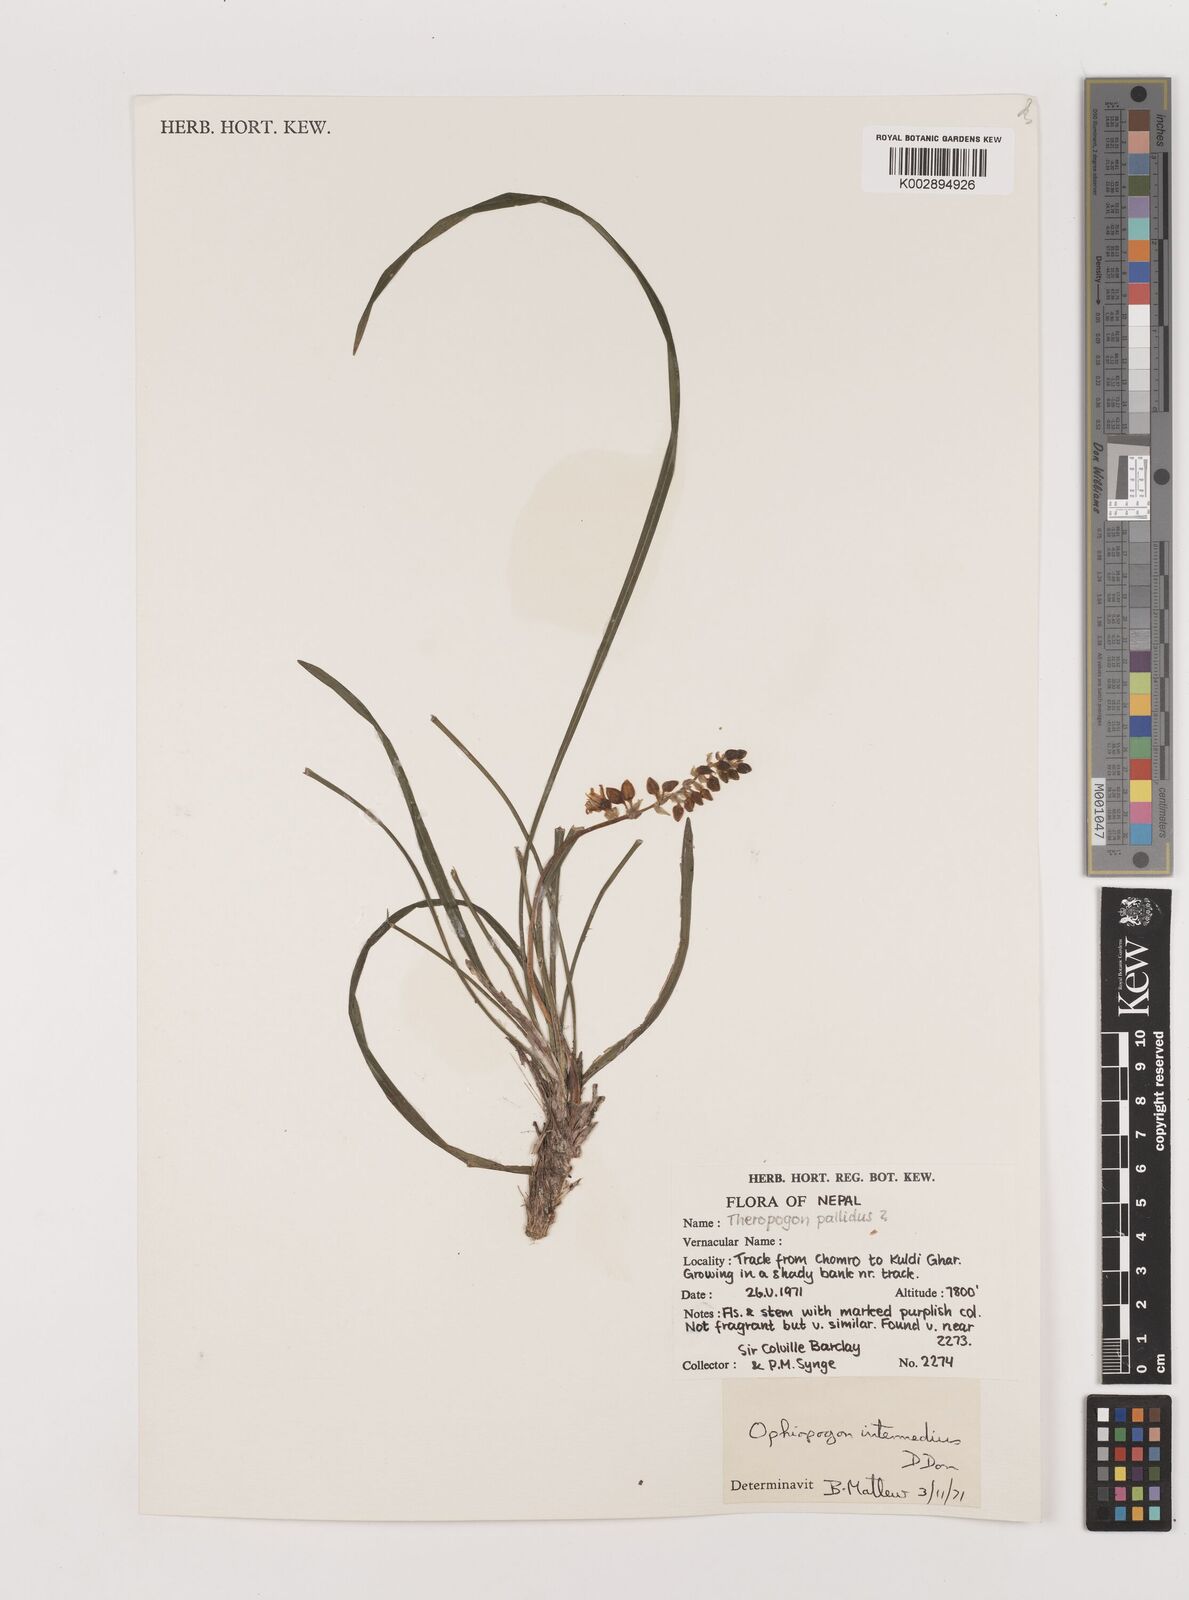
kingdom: Plantae
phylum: Tracheophyta
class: Liliopsida
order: Asparagales
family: Asparagaceae
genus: Ophiopogon
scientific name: Ophiopogon intermedius
